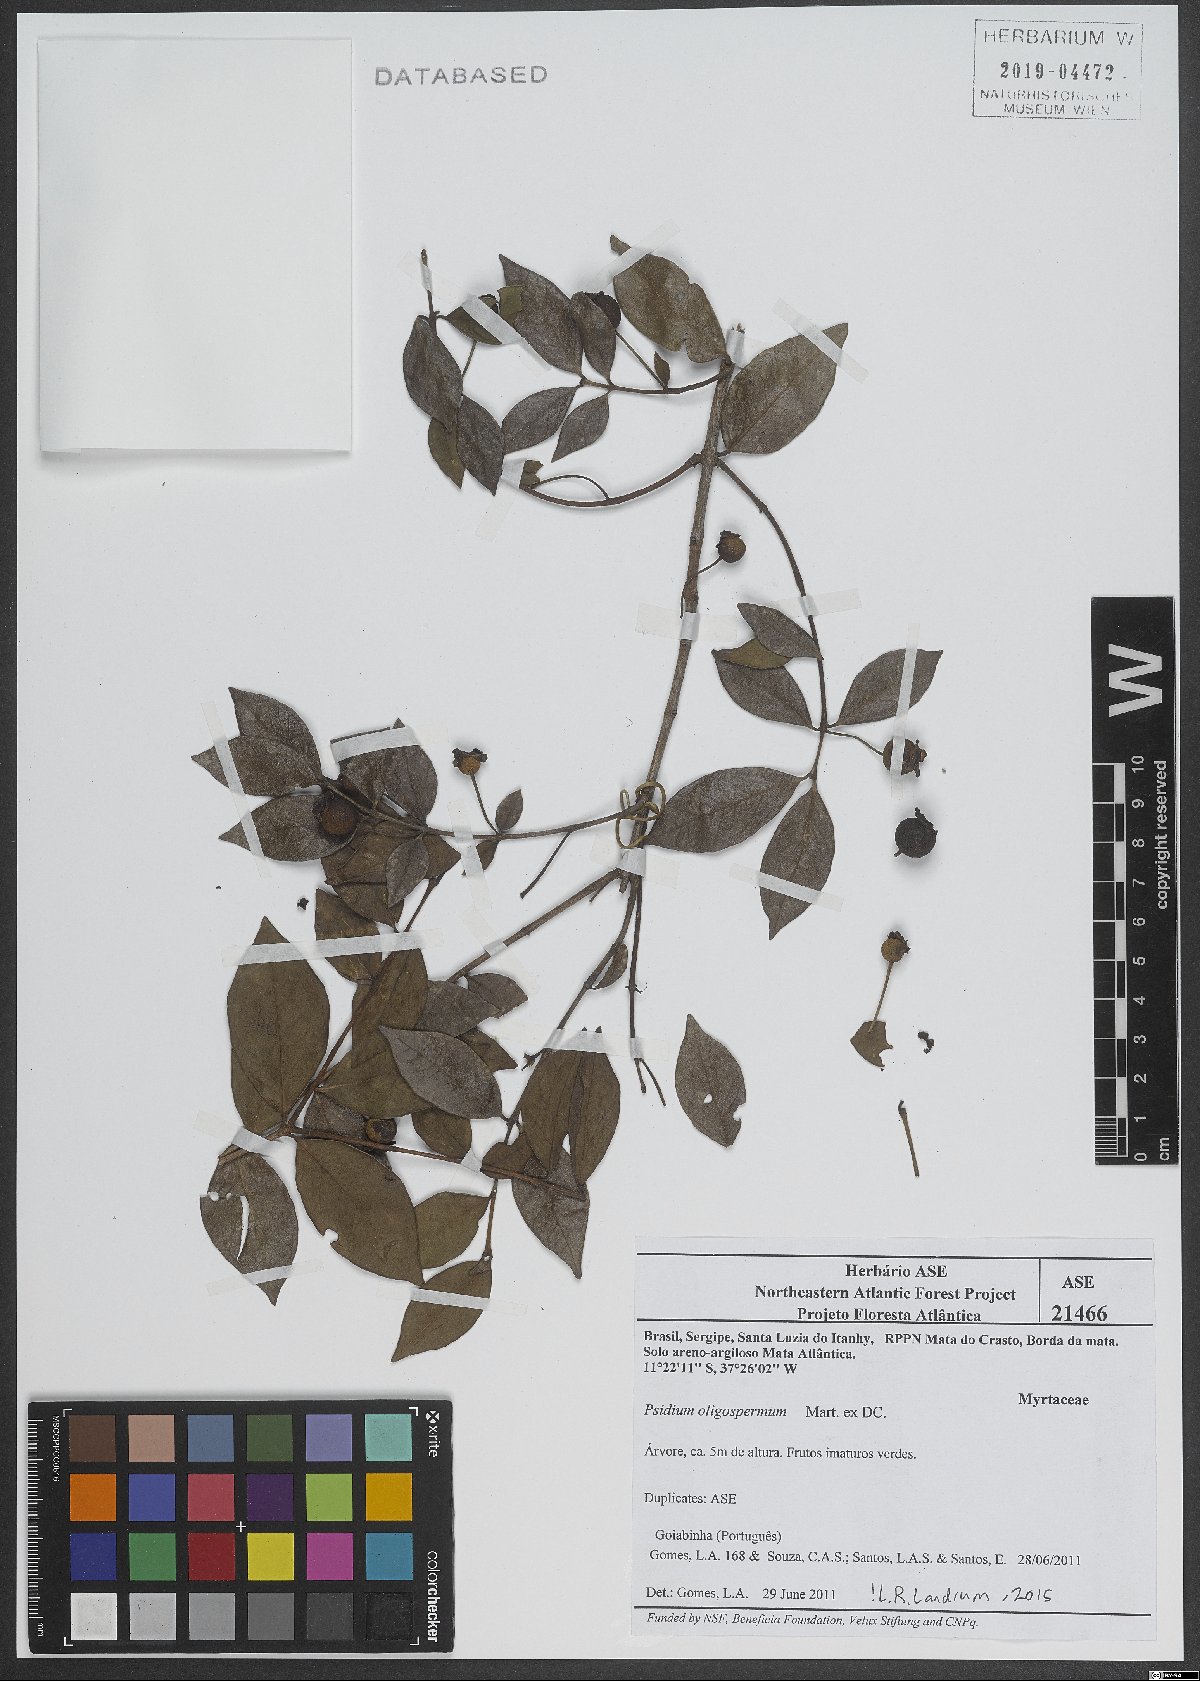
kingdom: Plantae
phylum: Tracheophyta
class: Magnoliopsida
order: Myrtales
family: Myrtaceae
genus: Psidium
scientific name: Psidium salutare
